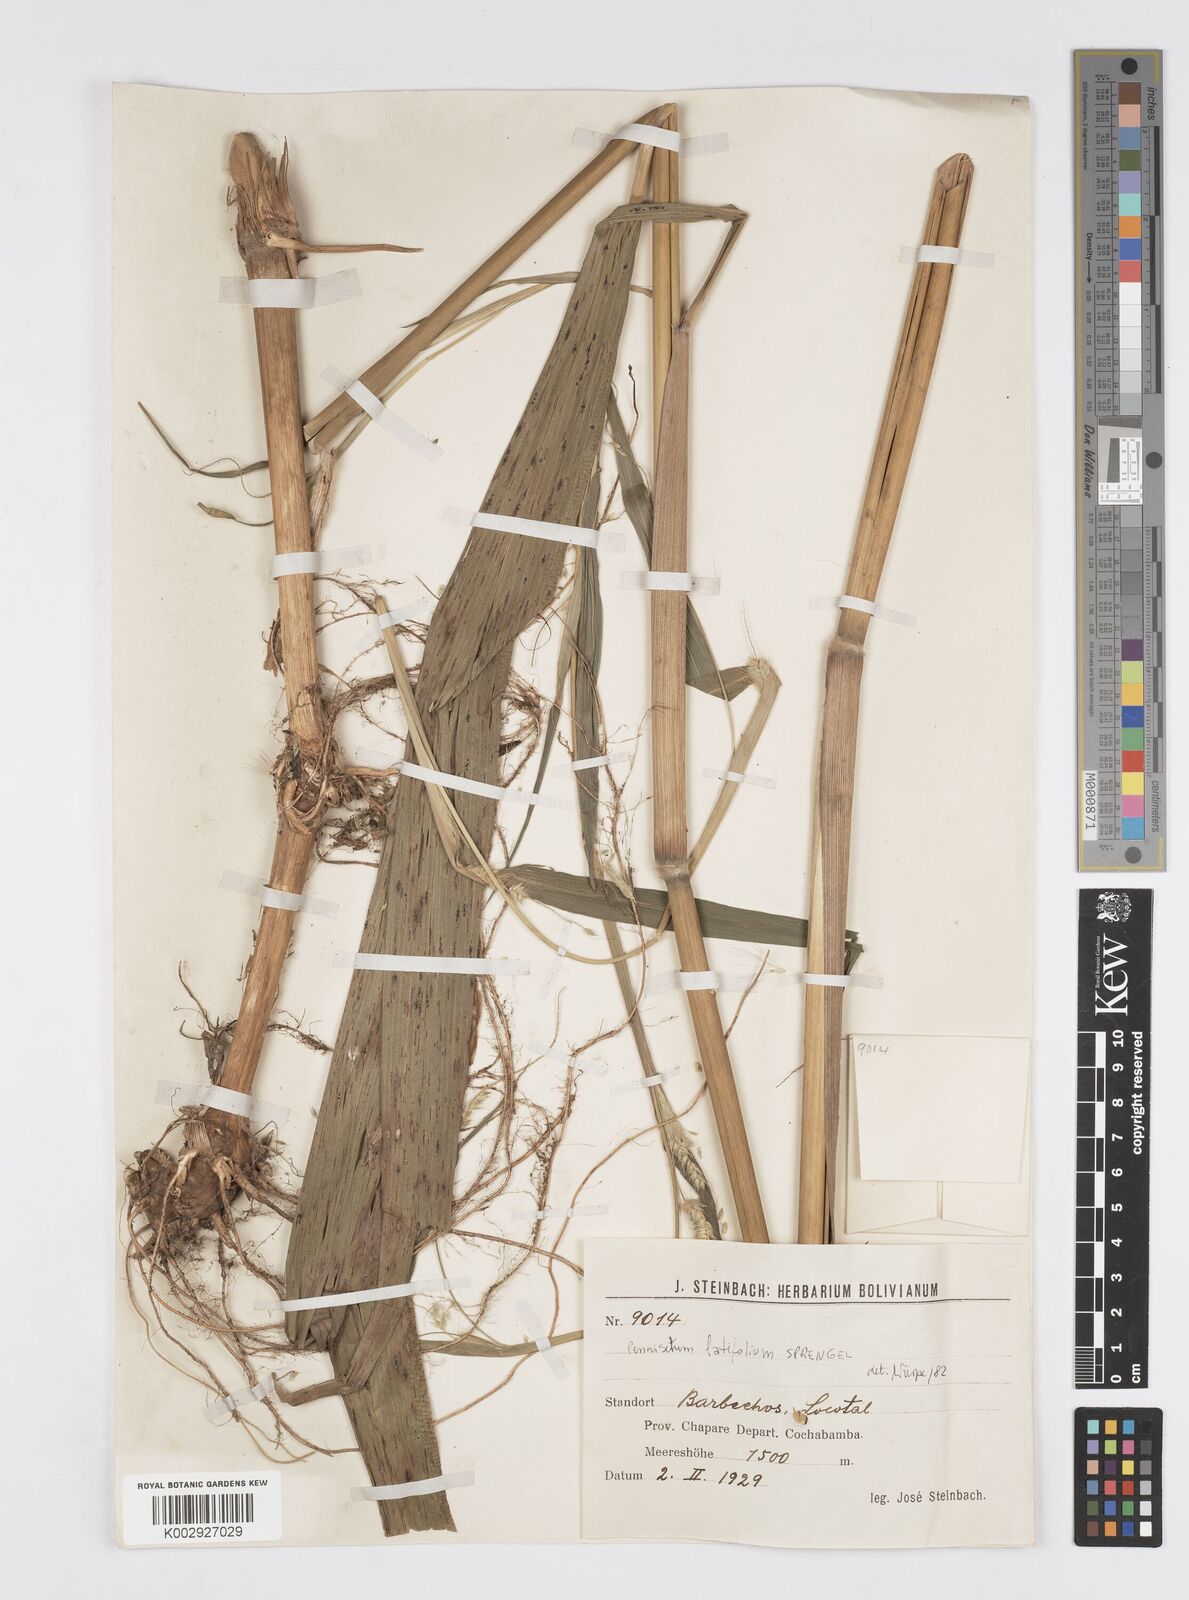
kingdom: Plantae
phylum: Tracheophyta
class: Liliopsida
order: Poales
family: Poaceae
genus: Cenchrus
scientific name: Cenchrus latifolius
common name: Sandbur
